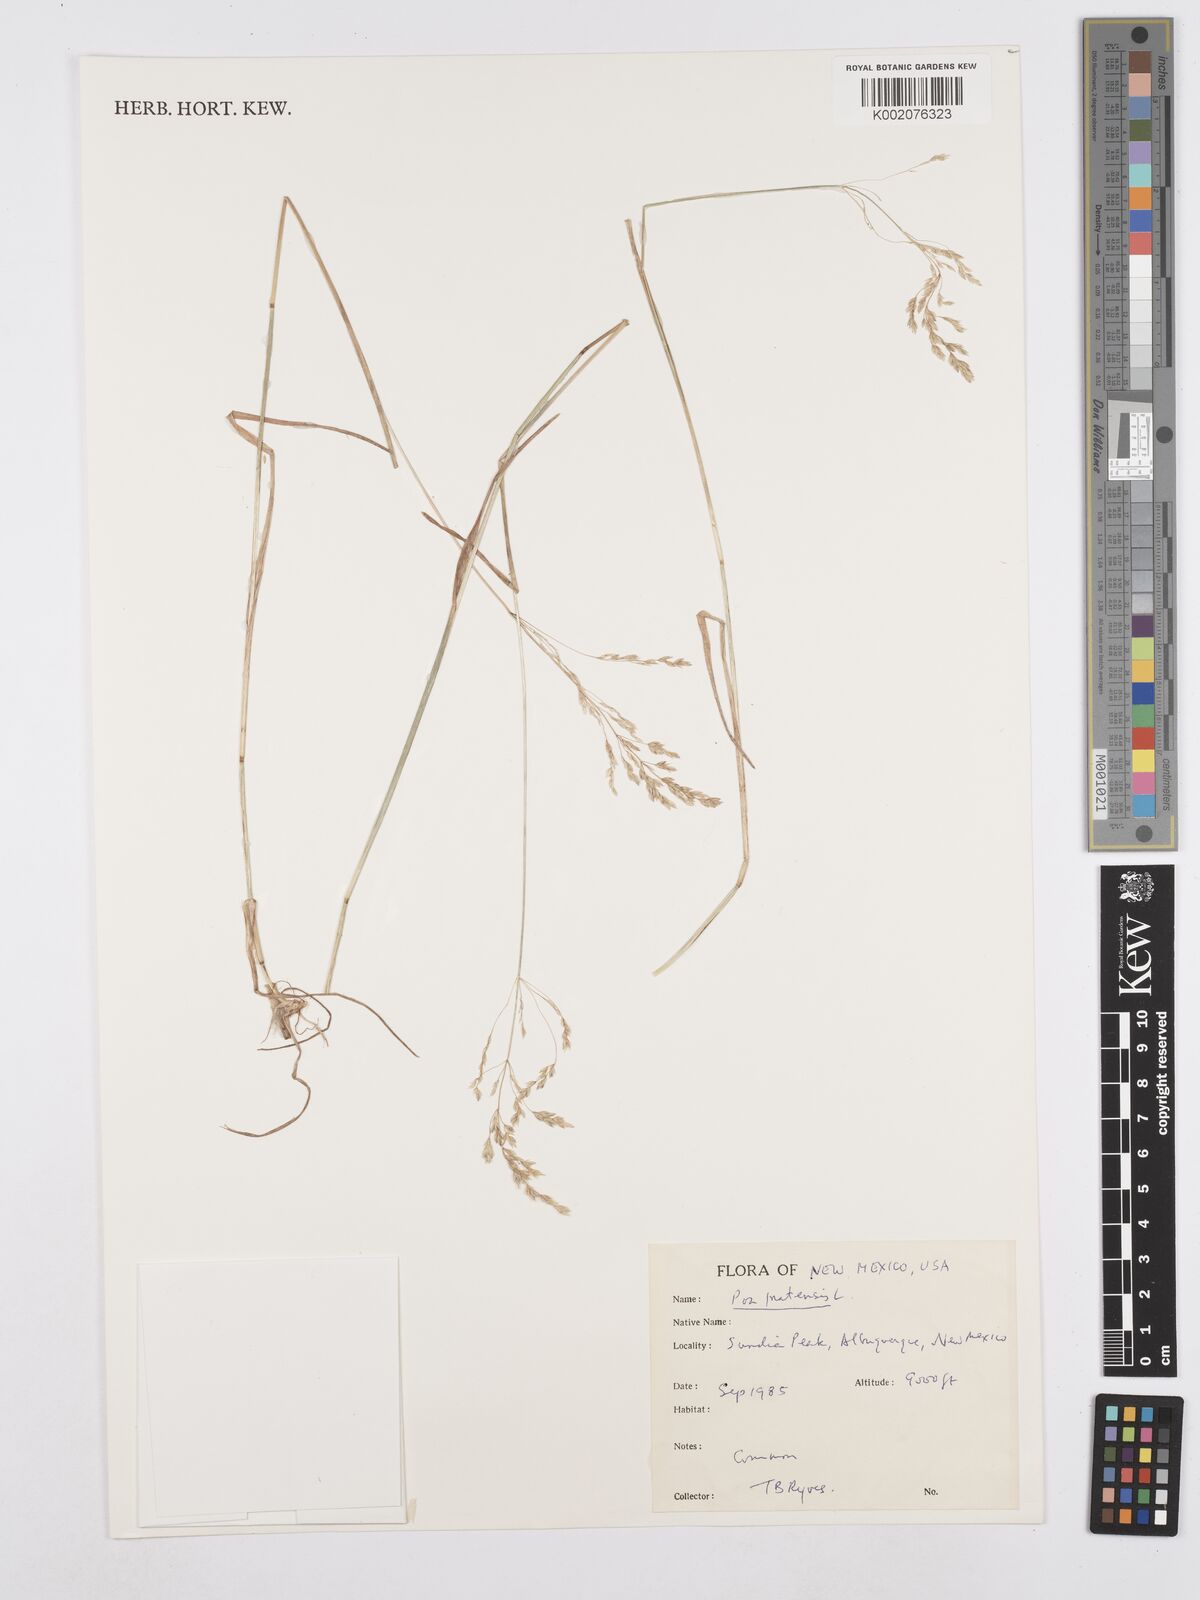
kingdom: Plantae
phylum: Tracheophyta
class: Liliopsida
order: Poales
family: Poaceae
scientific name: Poaceae
